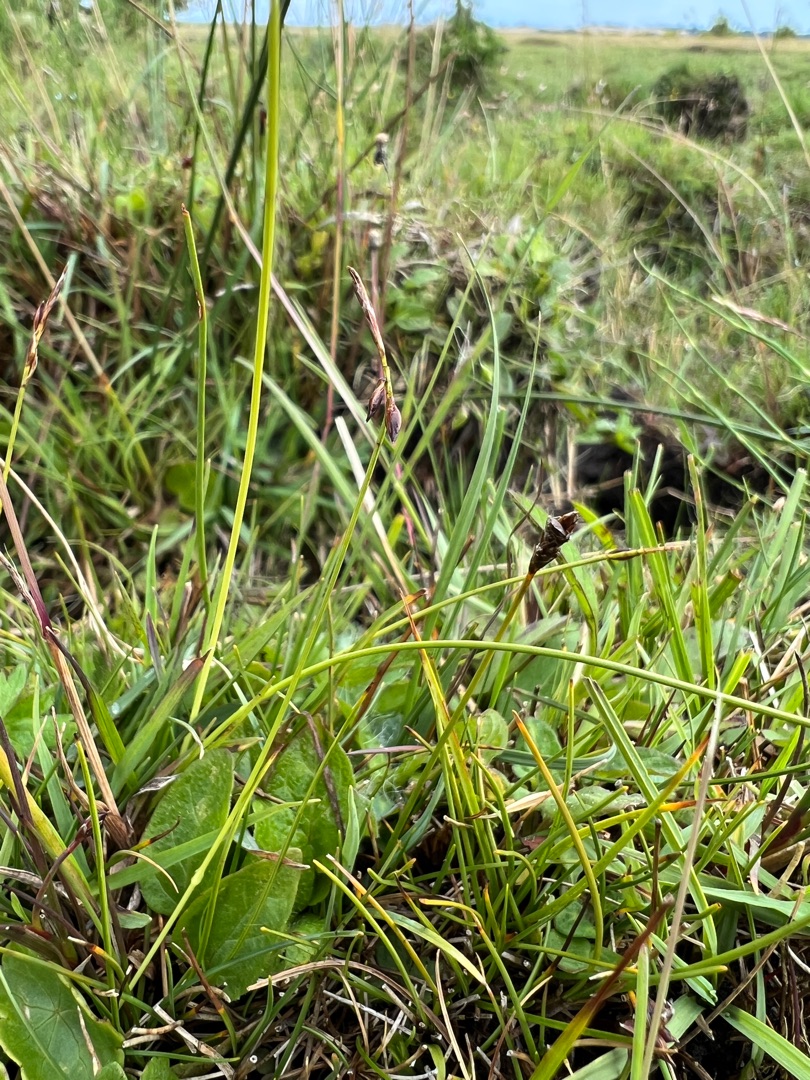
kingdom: Plantae
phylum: Tracheophyta
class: Liliopsida
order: Poales
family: Cyperaceae
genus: Carex
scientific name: Carex pulicaris
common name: Loppe-star
